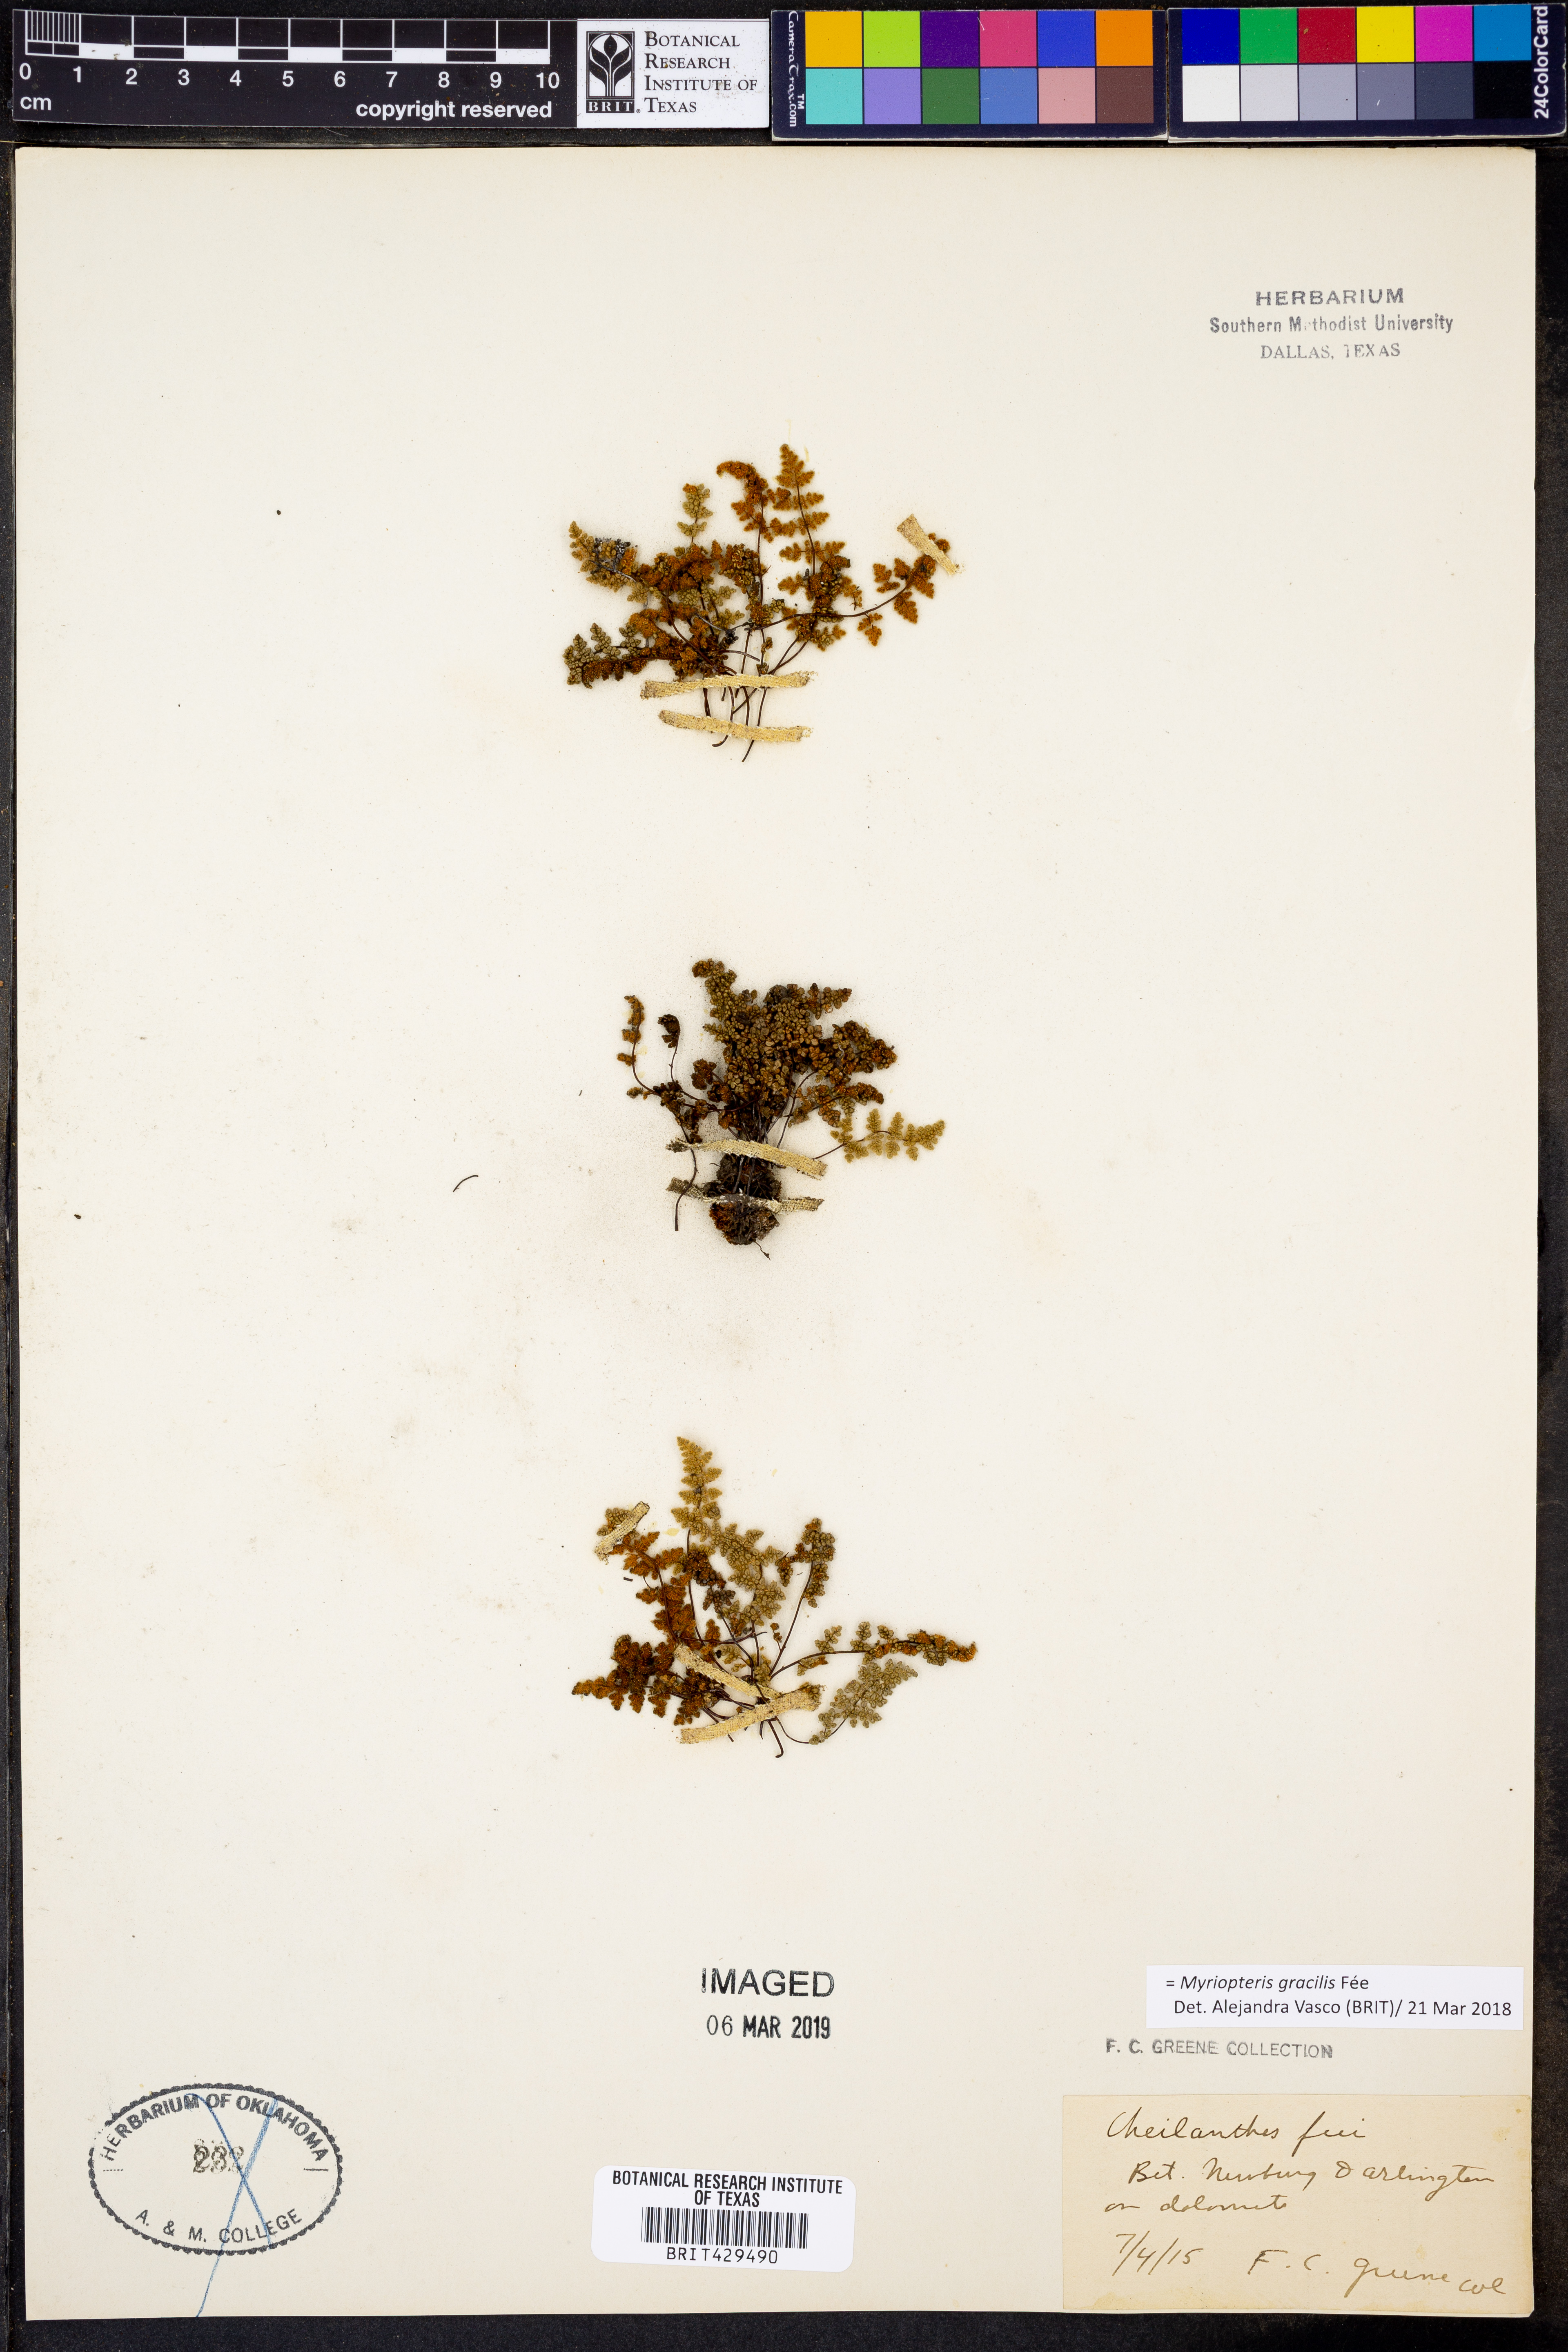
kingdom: Plantae
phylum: Tracheophyta
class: Polypodiopsida
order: Polypodiales
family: Pteridaceae
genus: Myriopteris
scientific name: Myriopteris gracilis
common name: Fee's lip fern
